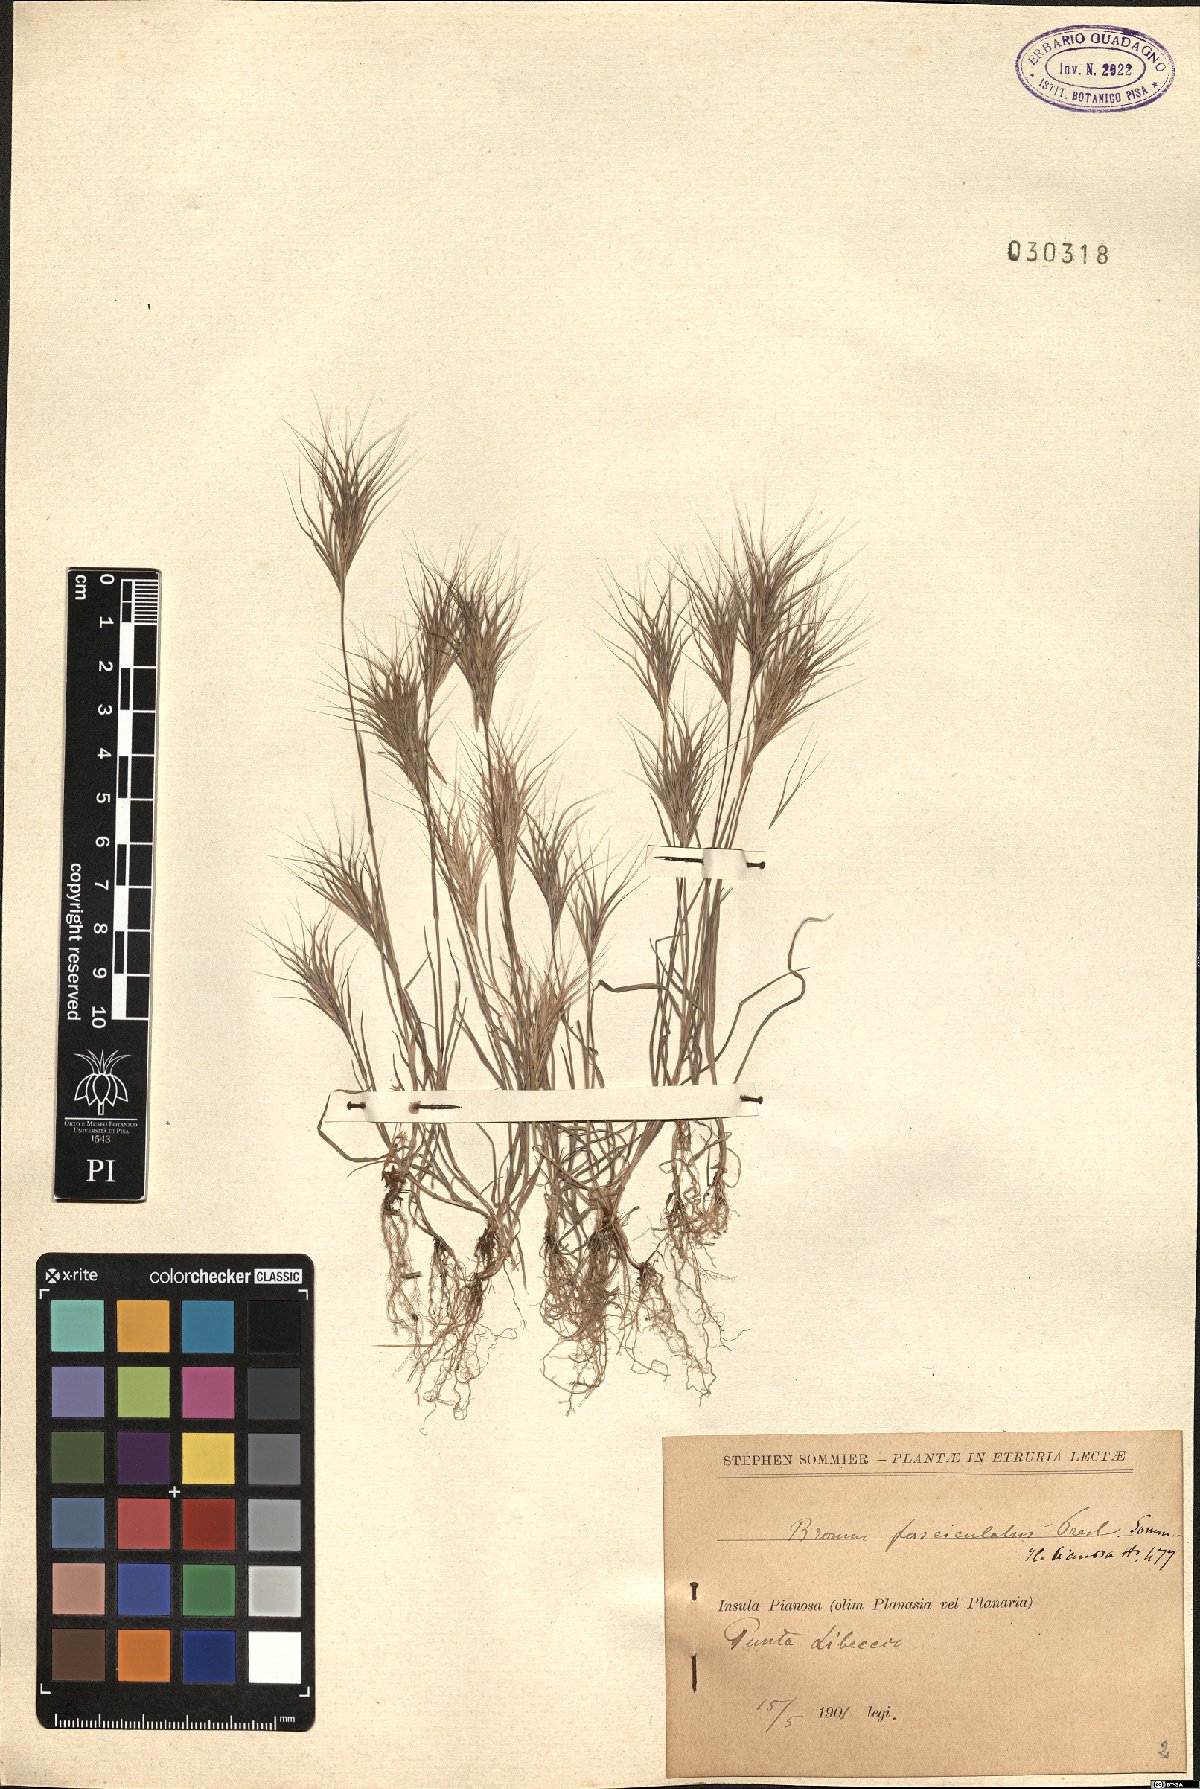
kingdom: Plantae
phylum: Tracheophyta
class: Liliopsida
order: Poales
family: Poaceae
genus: Bromus
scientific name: Bromus fasciculatus
